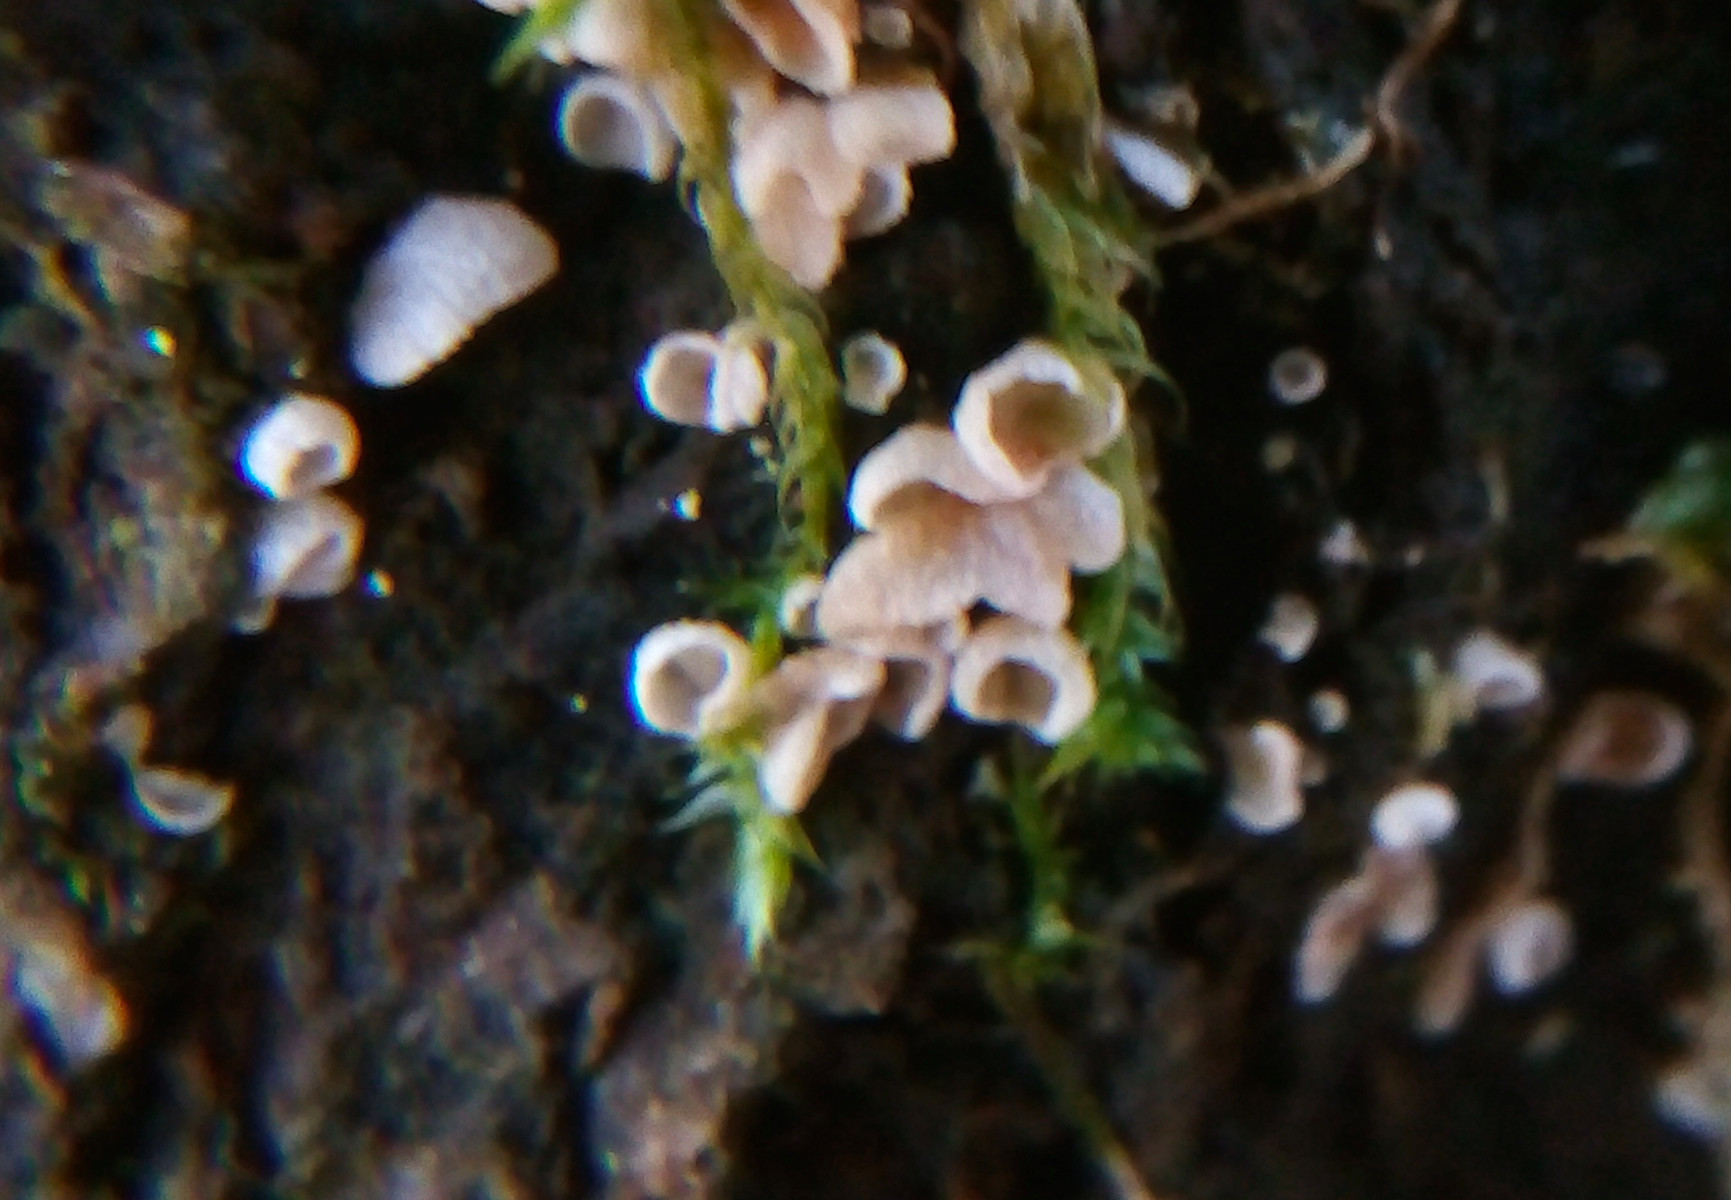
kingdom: Fungi
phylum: Basidiomycota
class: Agaricomycetes
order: Agaricales
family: Chromocyphellaceae
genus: Chromocyphella
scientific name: Chromocyphella muscicola
